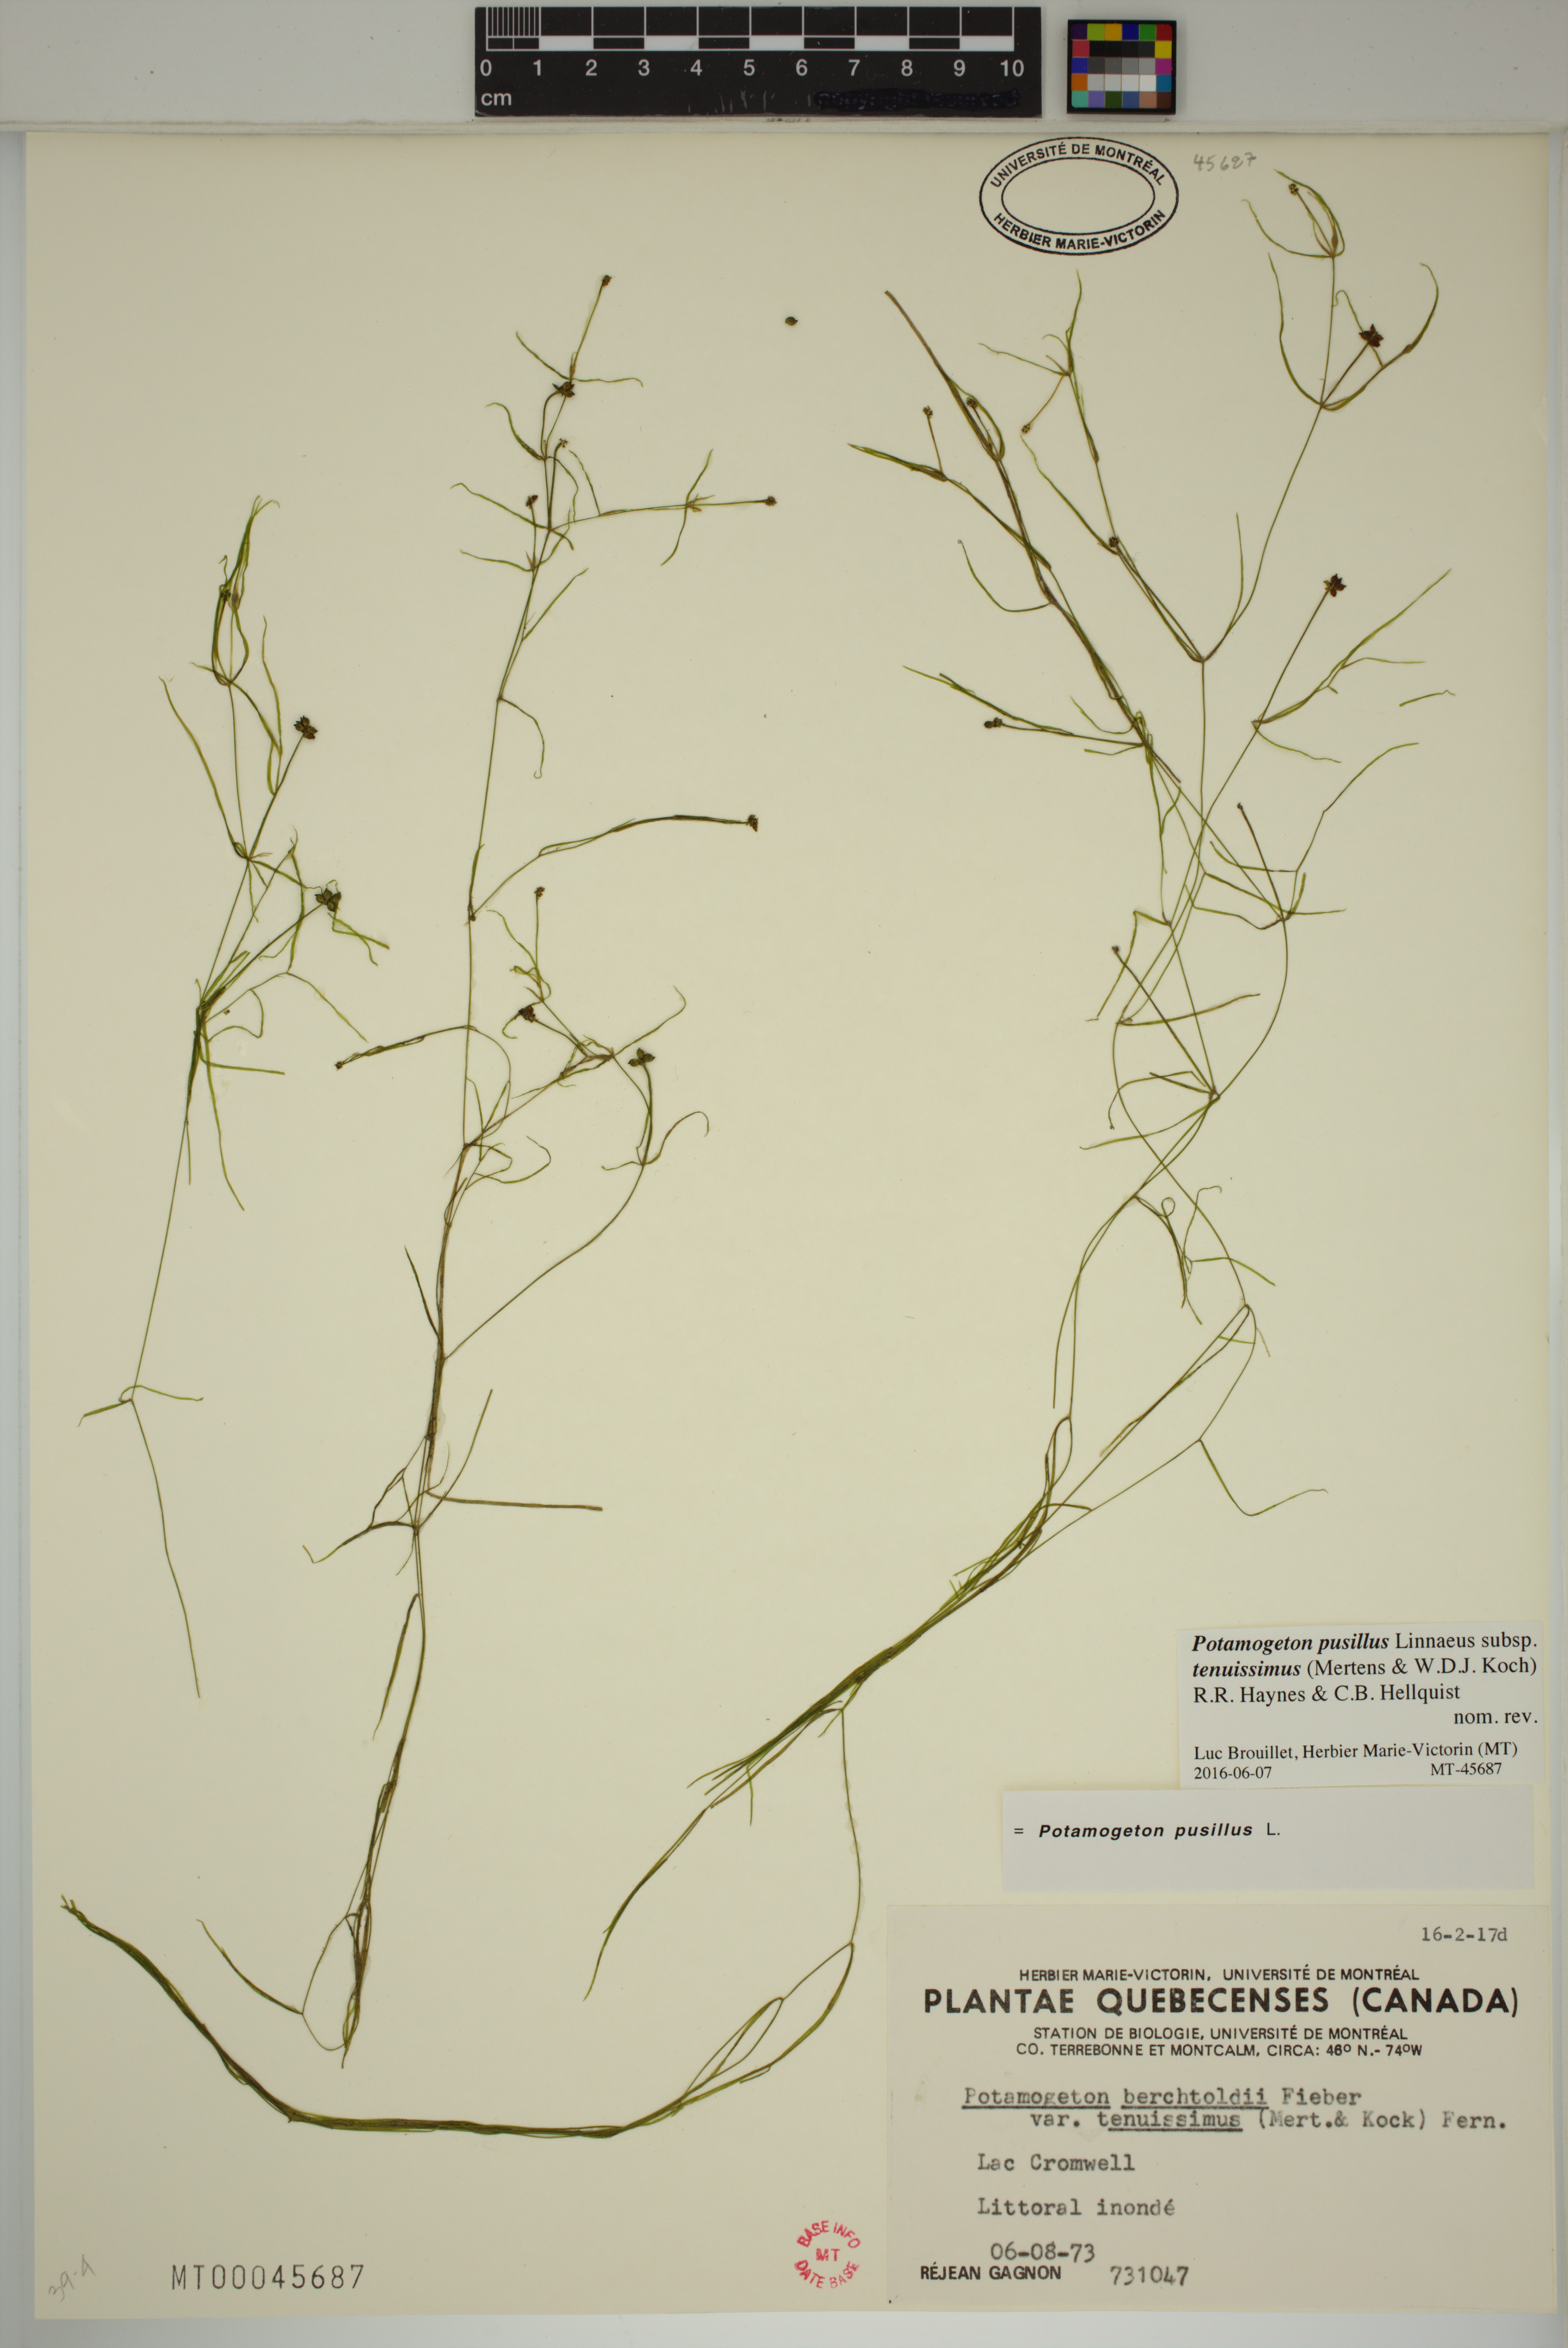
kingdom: Plantae
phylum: Tracheophyta
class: Liliopsida
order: Alismatales
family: Potamogetonaceae
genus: Potamogeton
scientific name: Potamogeton berchtoldii
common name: Small pondweed
